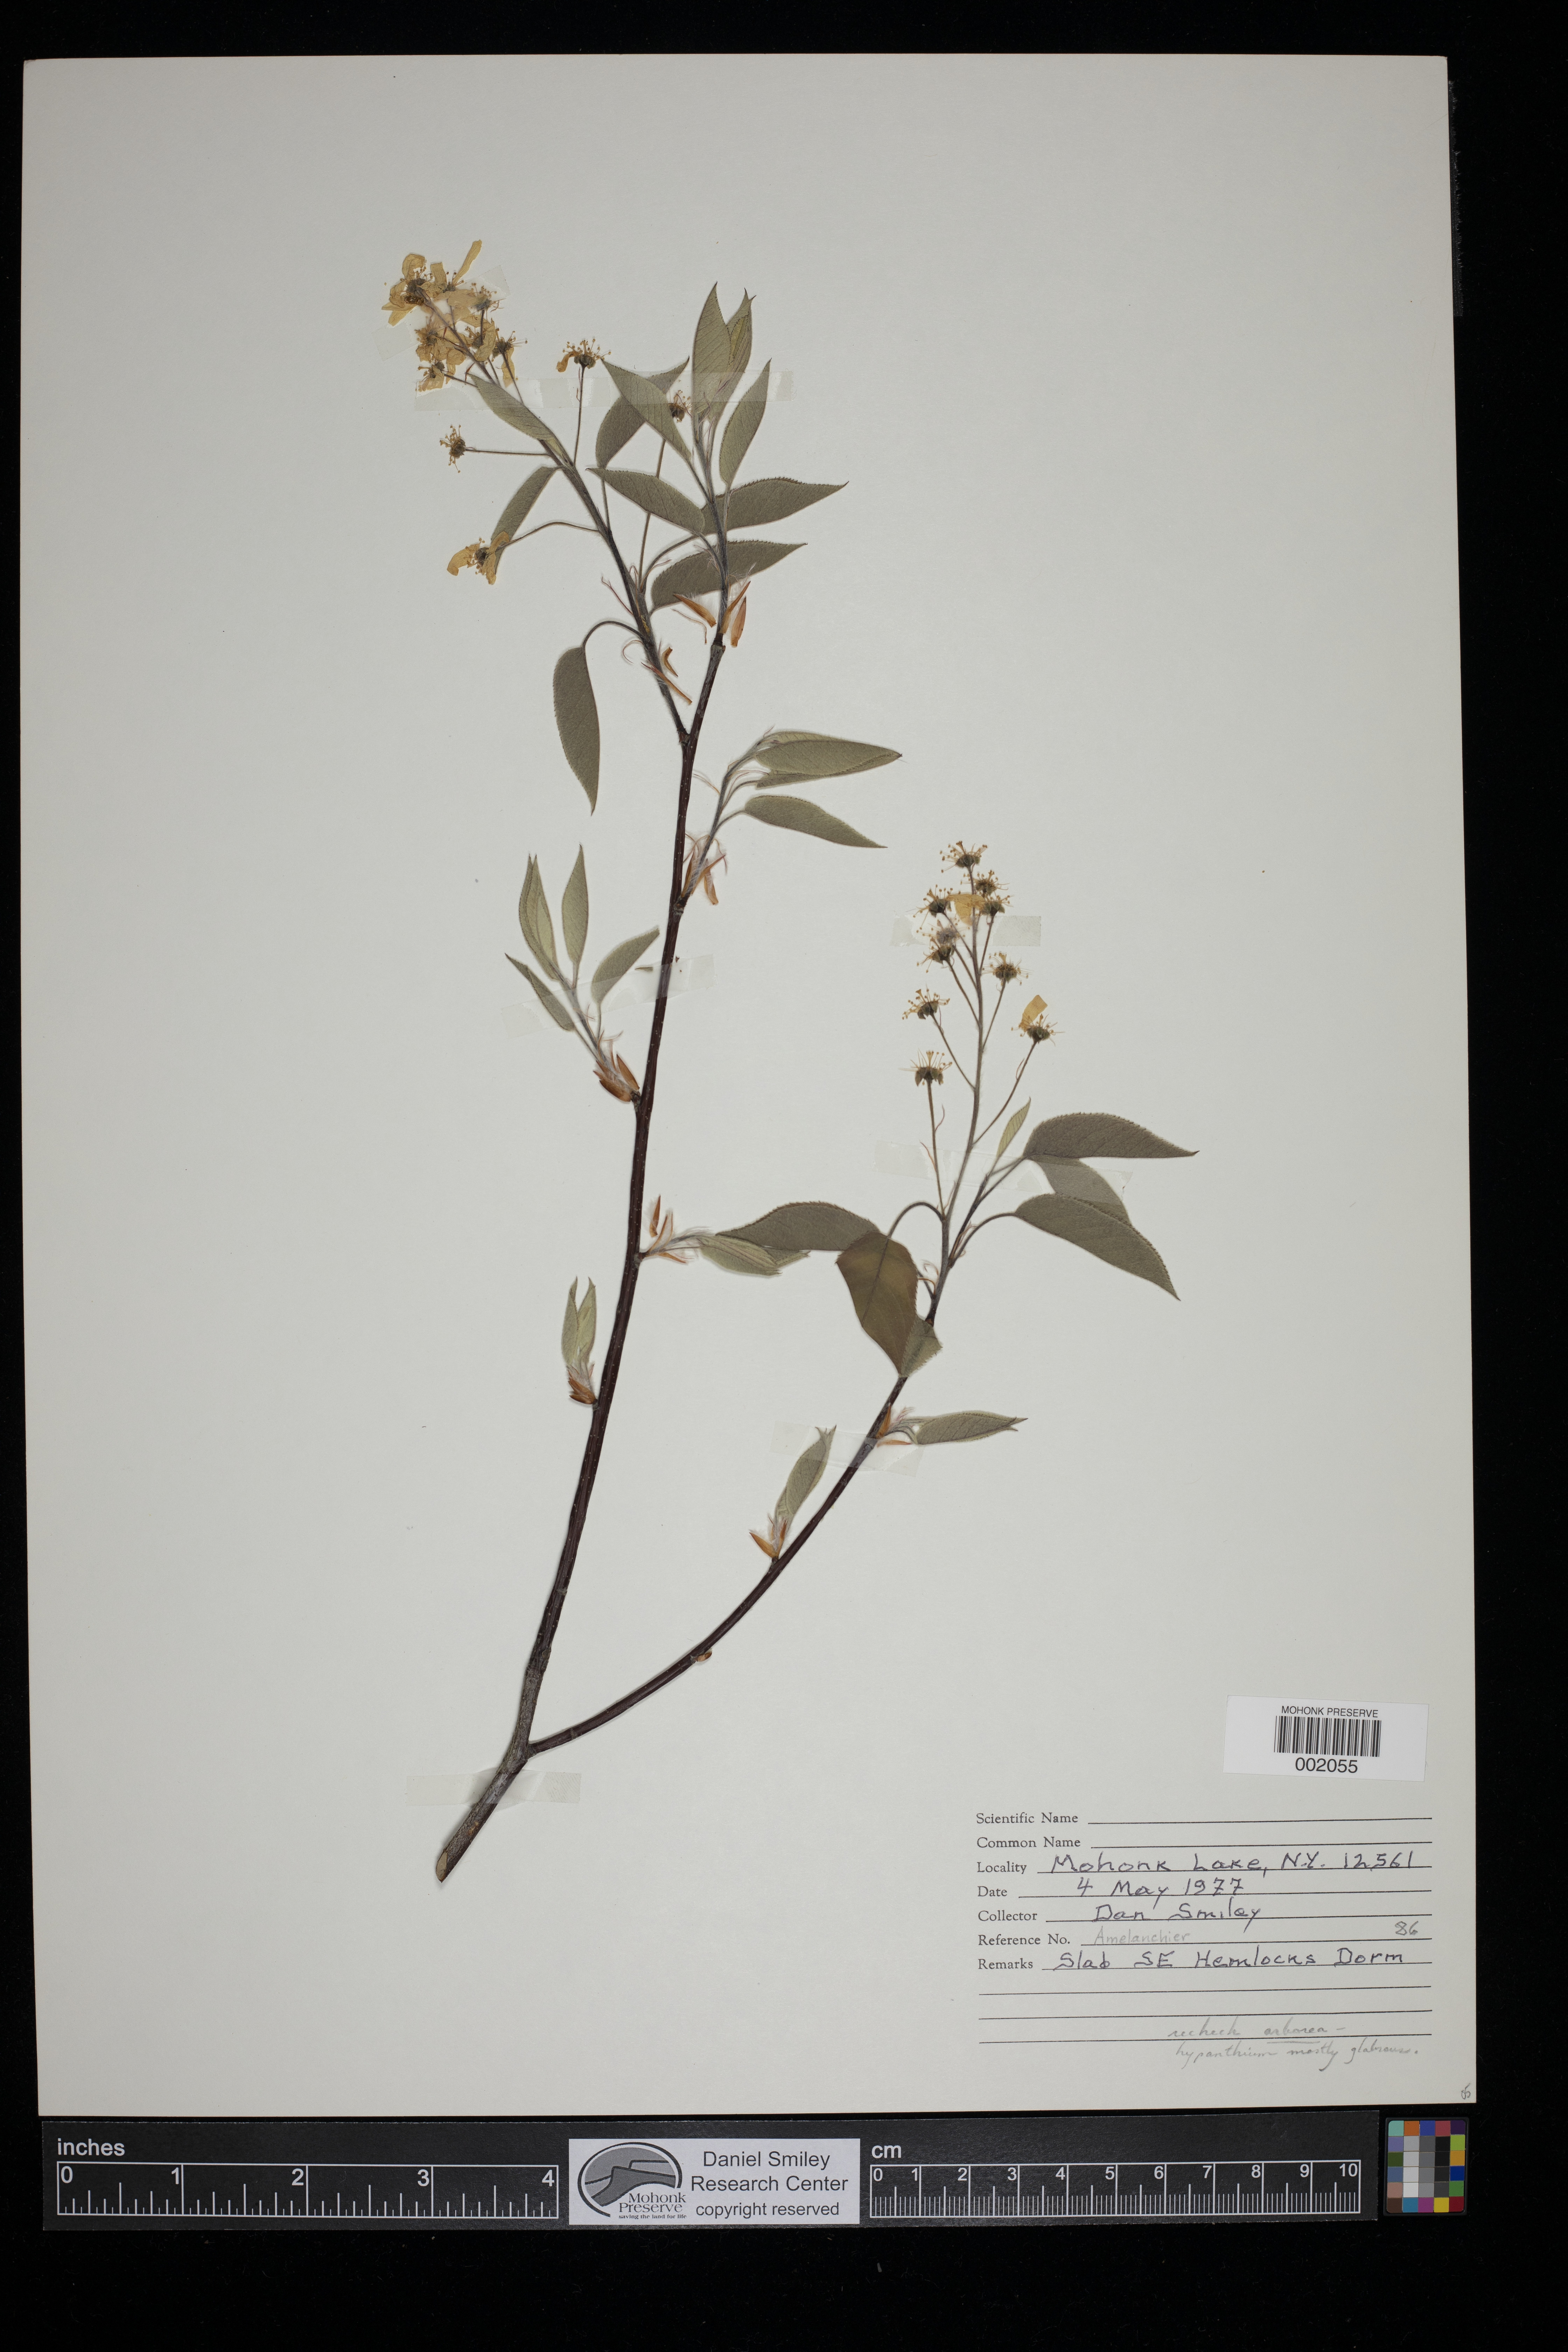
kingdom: Plantae
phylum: Tracheophyta
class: Magnoliopsida
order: Rosales
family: Rosaceae
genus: Amelanchier
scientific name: Amelanchier arborea
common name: Downy serviceberry
